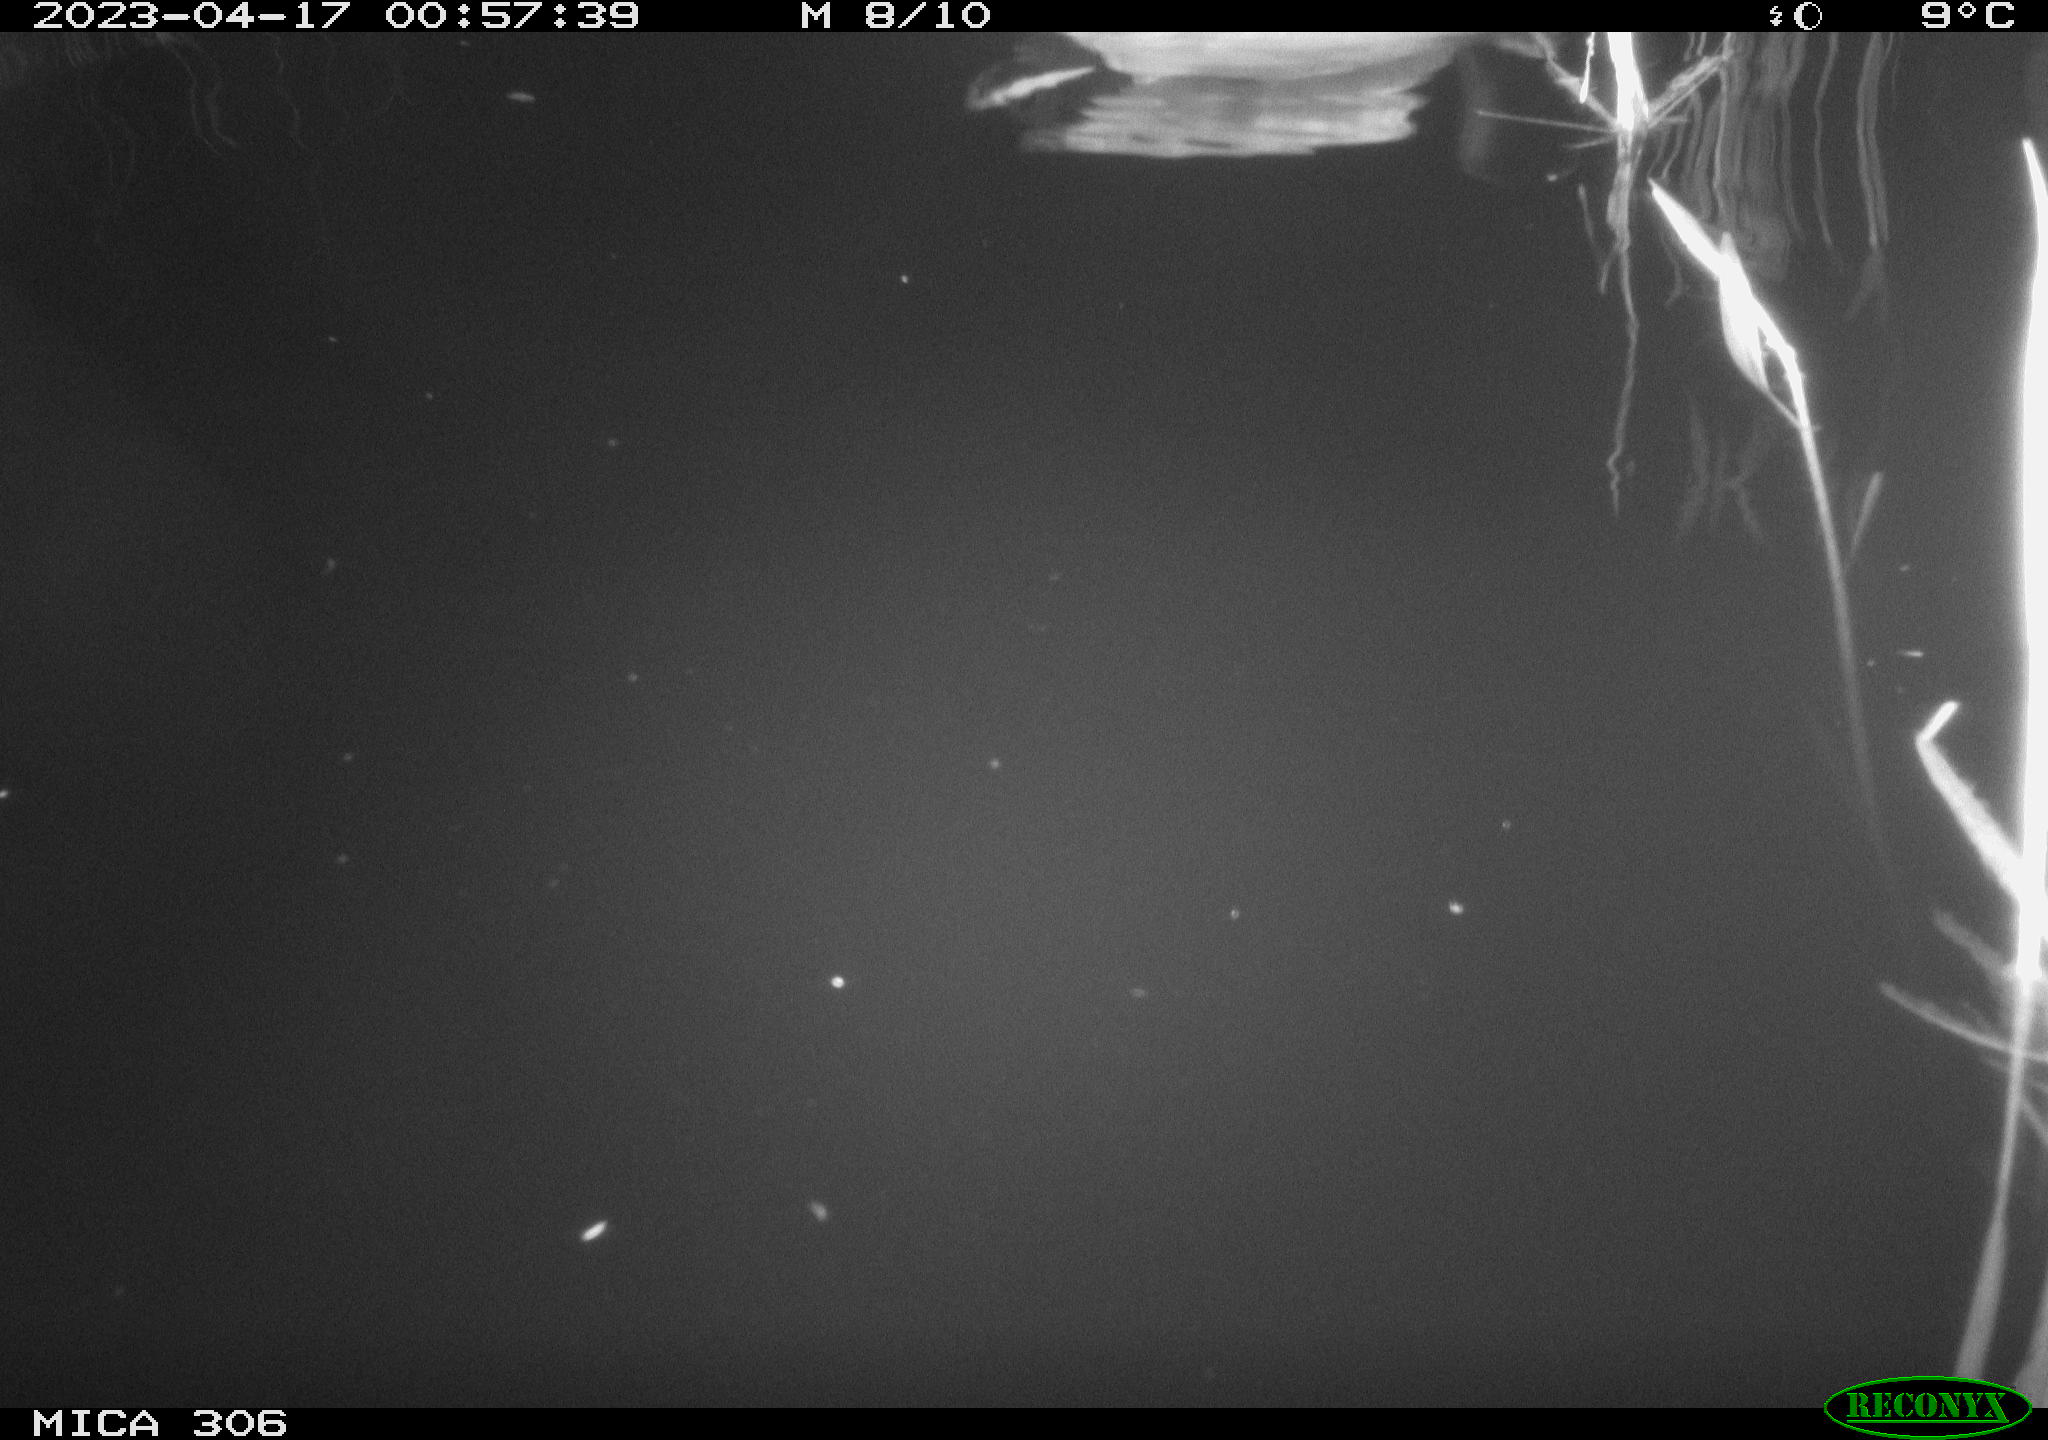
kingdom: Animalia
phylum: Chordata
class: Aves
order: Anseriformes
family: Anatidae
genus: Anas
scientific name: Anas
